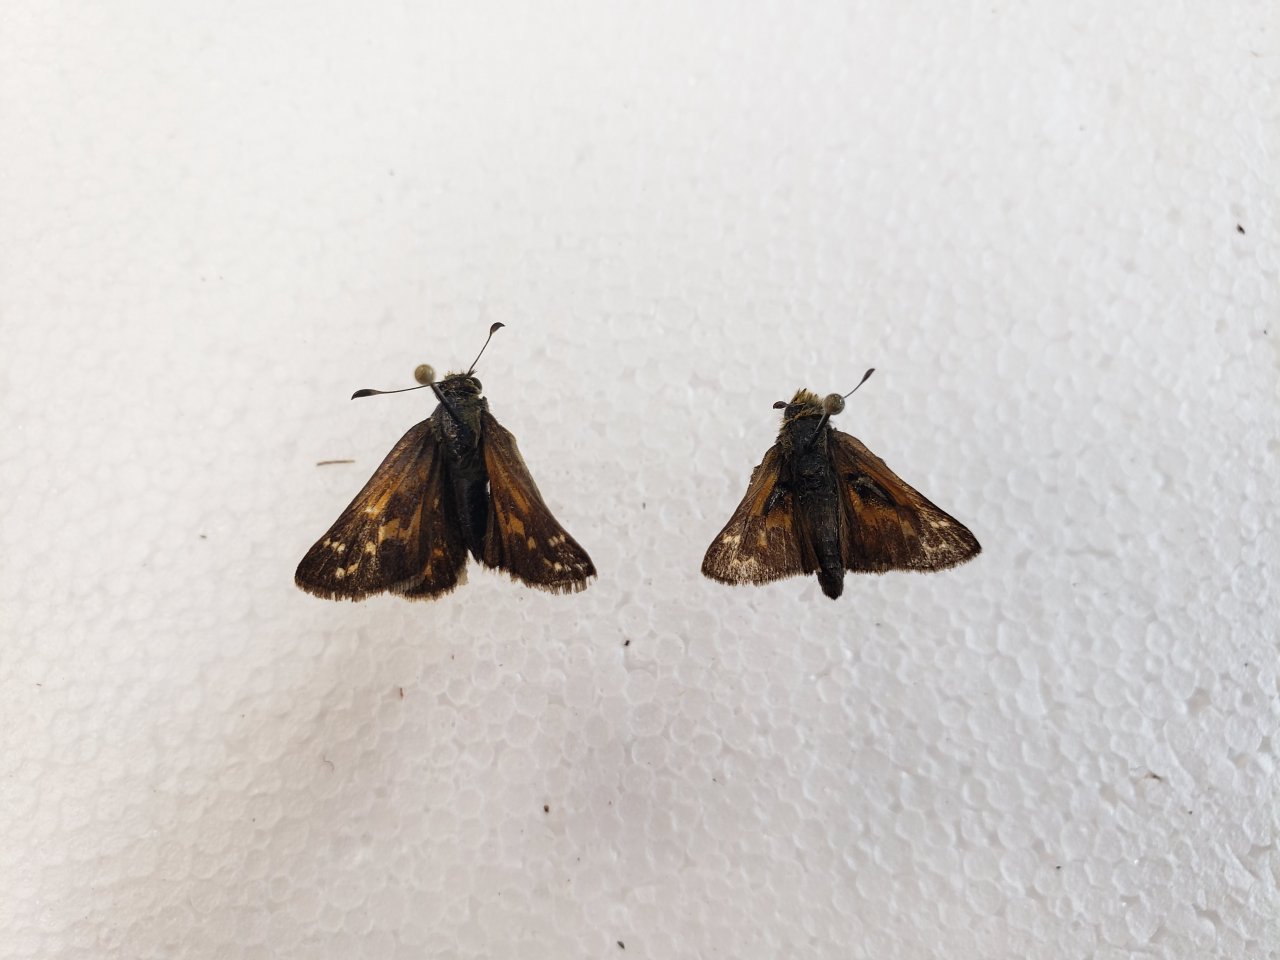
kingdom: Animalia
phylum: Arthropoda
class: Insecta
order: Lepidoptera
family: Hesperiidae
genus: Hesperia
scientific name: Hesperia comma
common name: Common Branded Skipper
